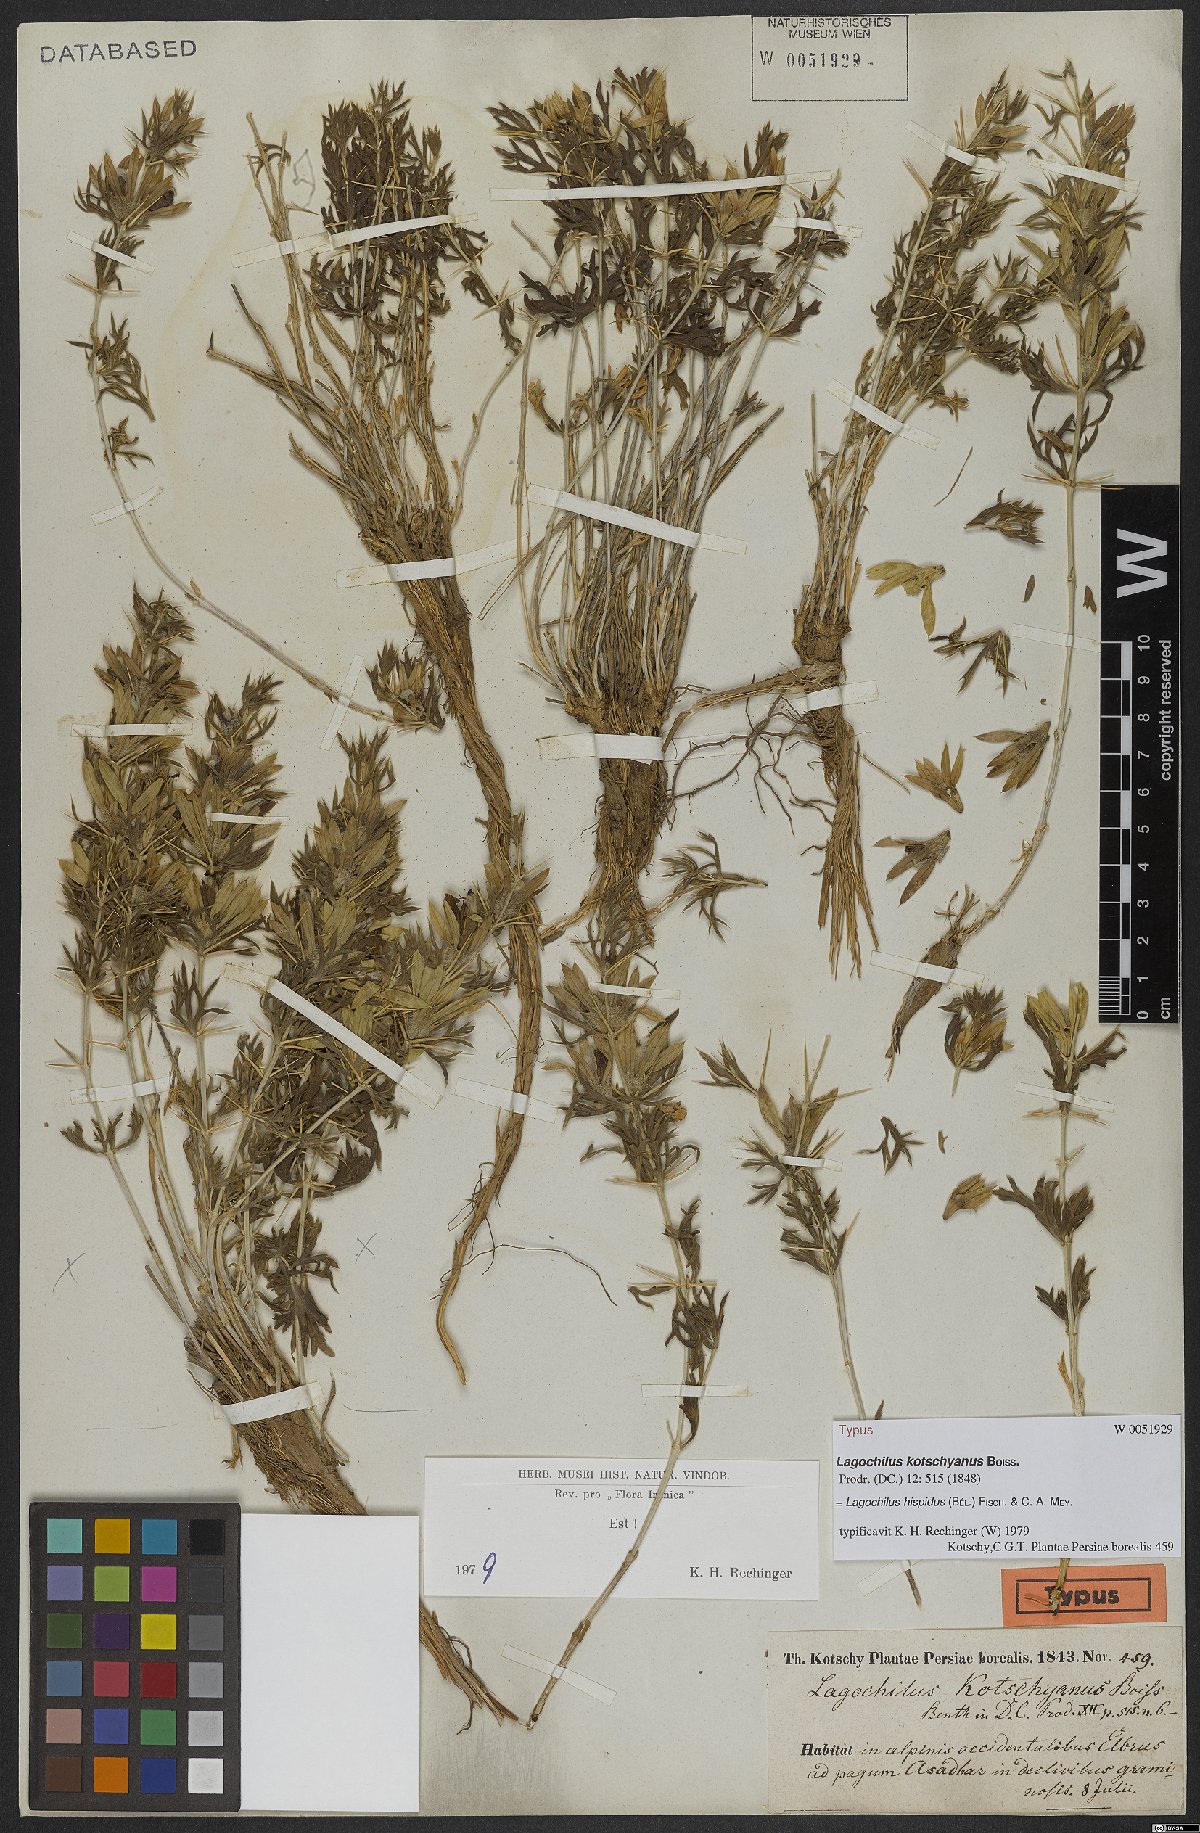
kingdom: Plantae
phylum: Tracheophyta
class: Magnoliopsida
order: Lamiales
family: Lamiaceae
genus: Lagochilus
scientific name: Lagochilus hispidus
